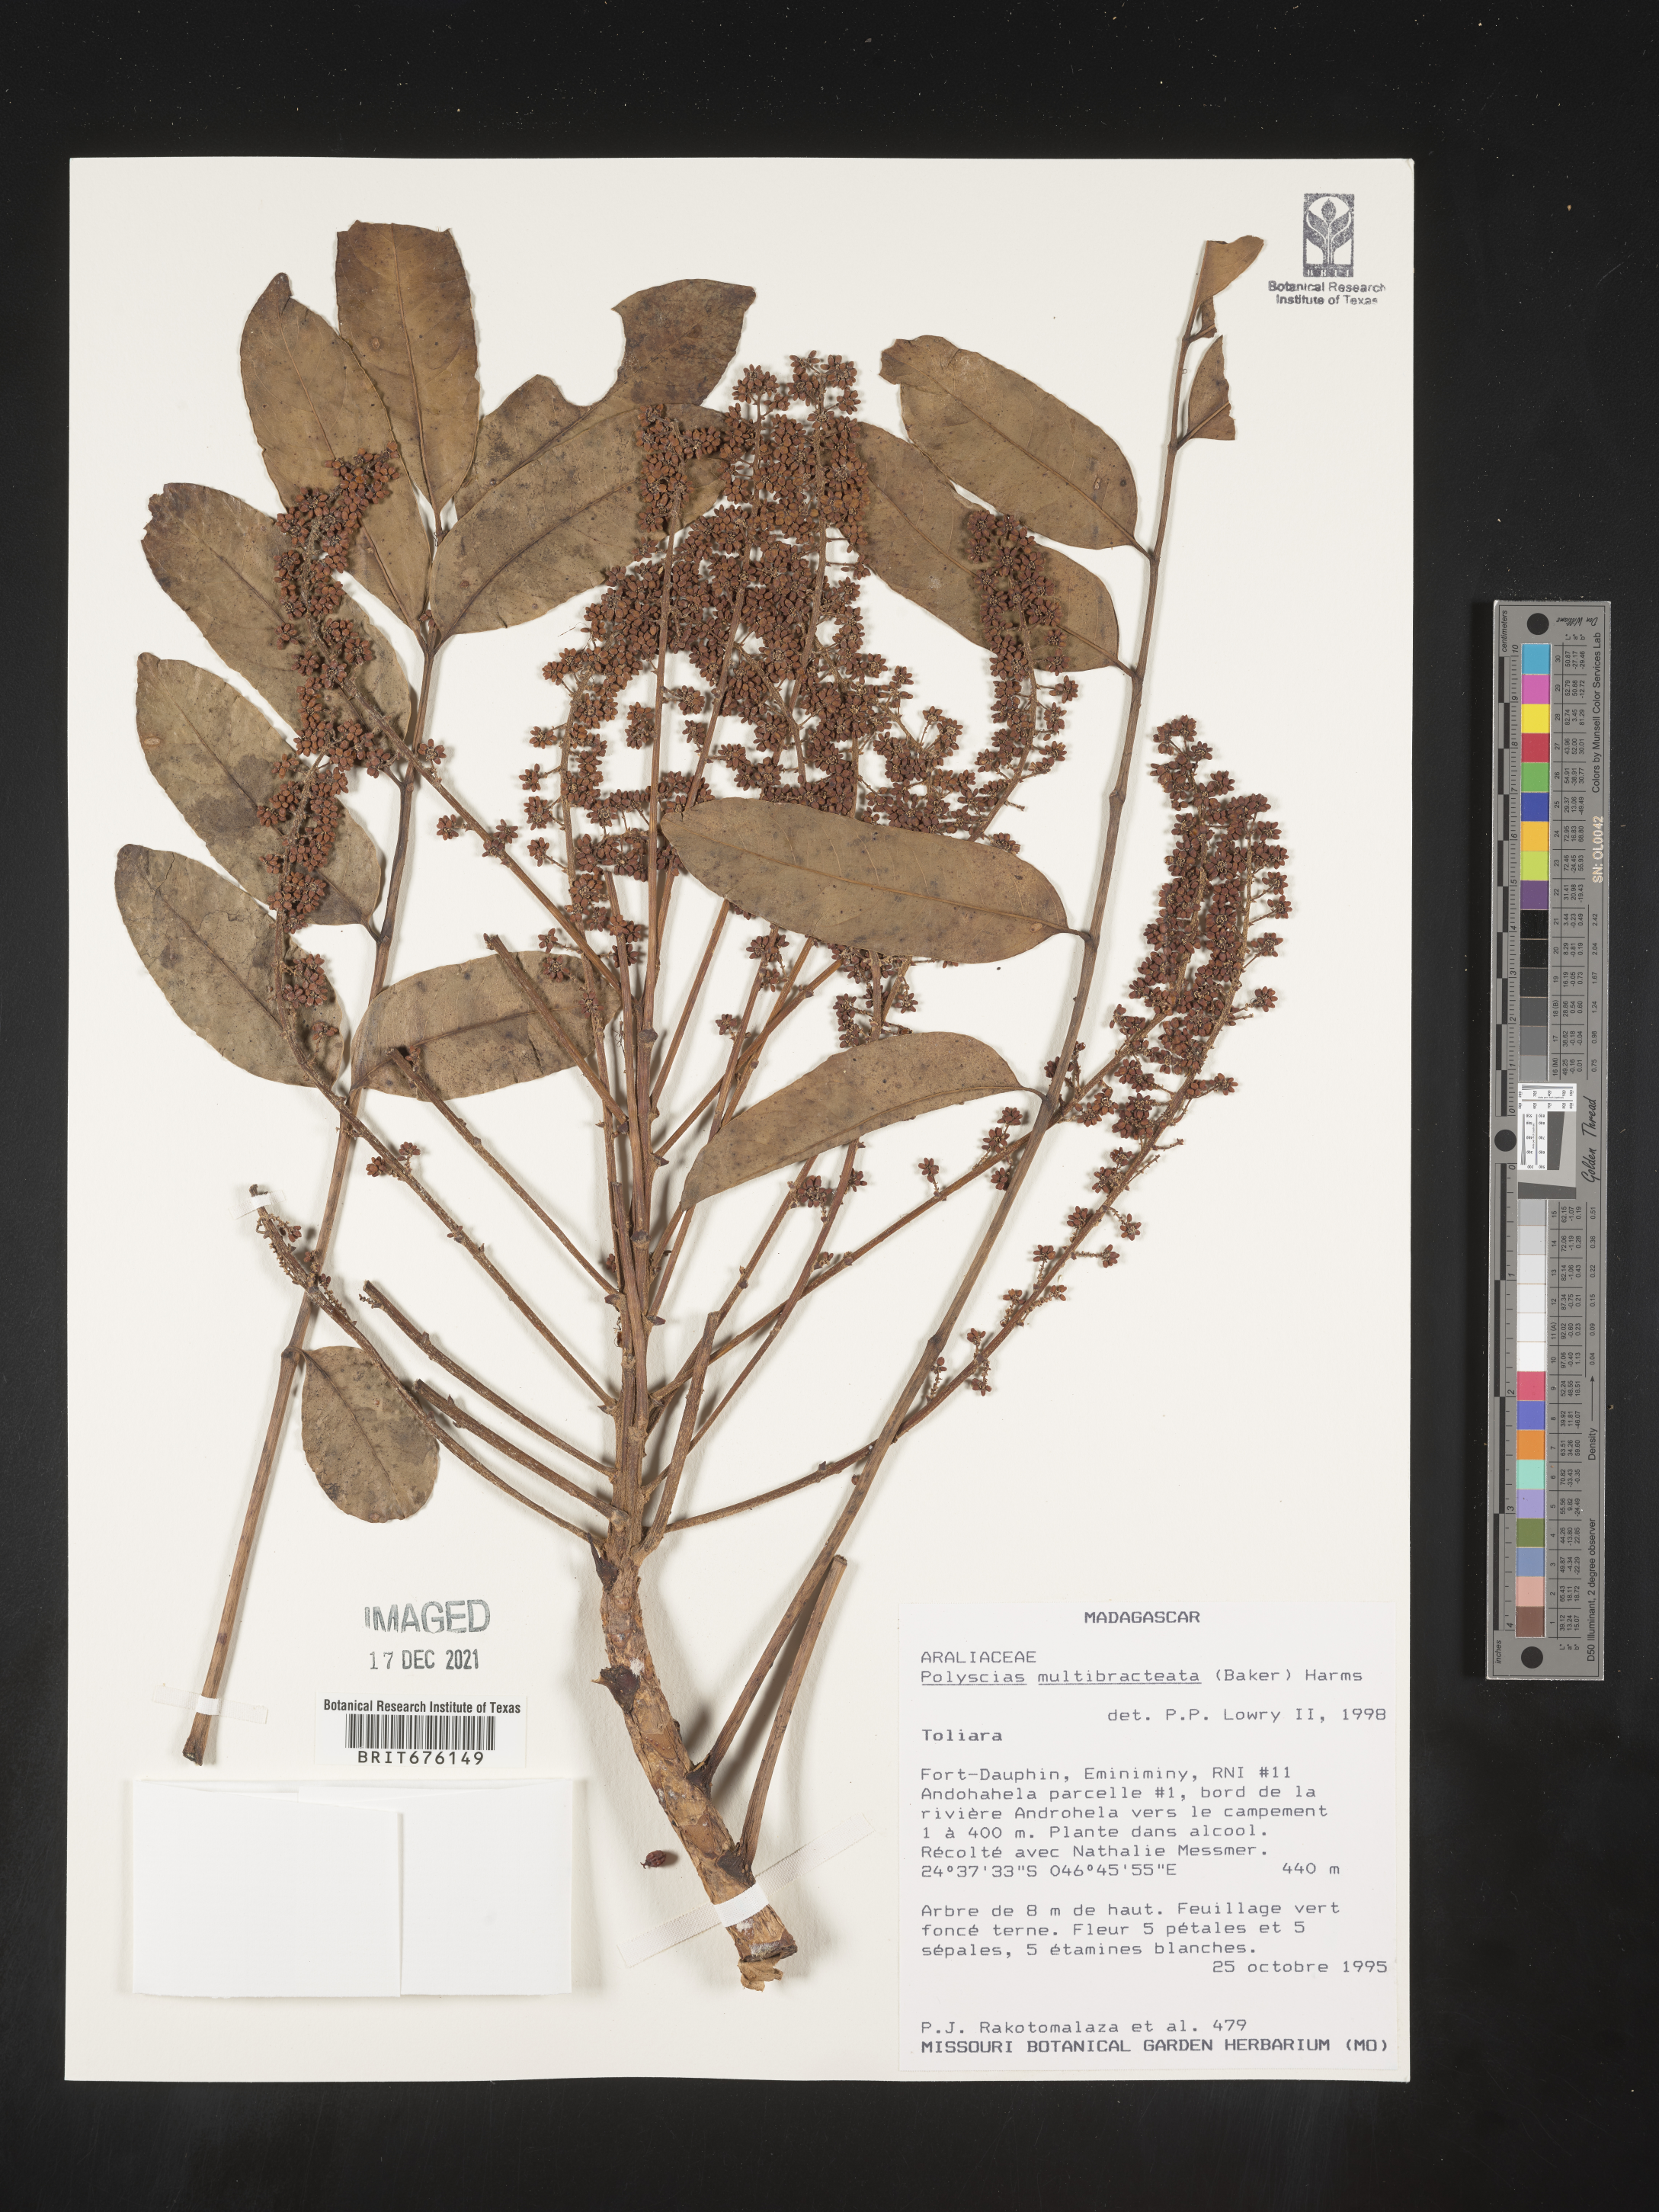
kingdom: Plantae
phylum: Tracheophyta
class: Magnoliopsida
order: Apiales
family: Araliaceae
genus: Polyscias
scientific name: Polyscias
